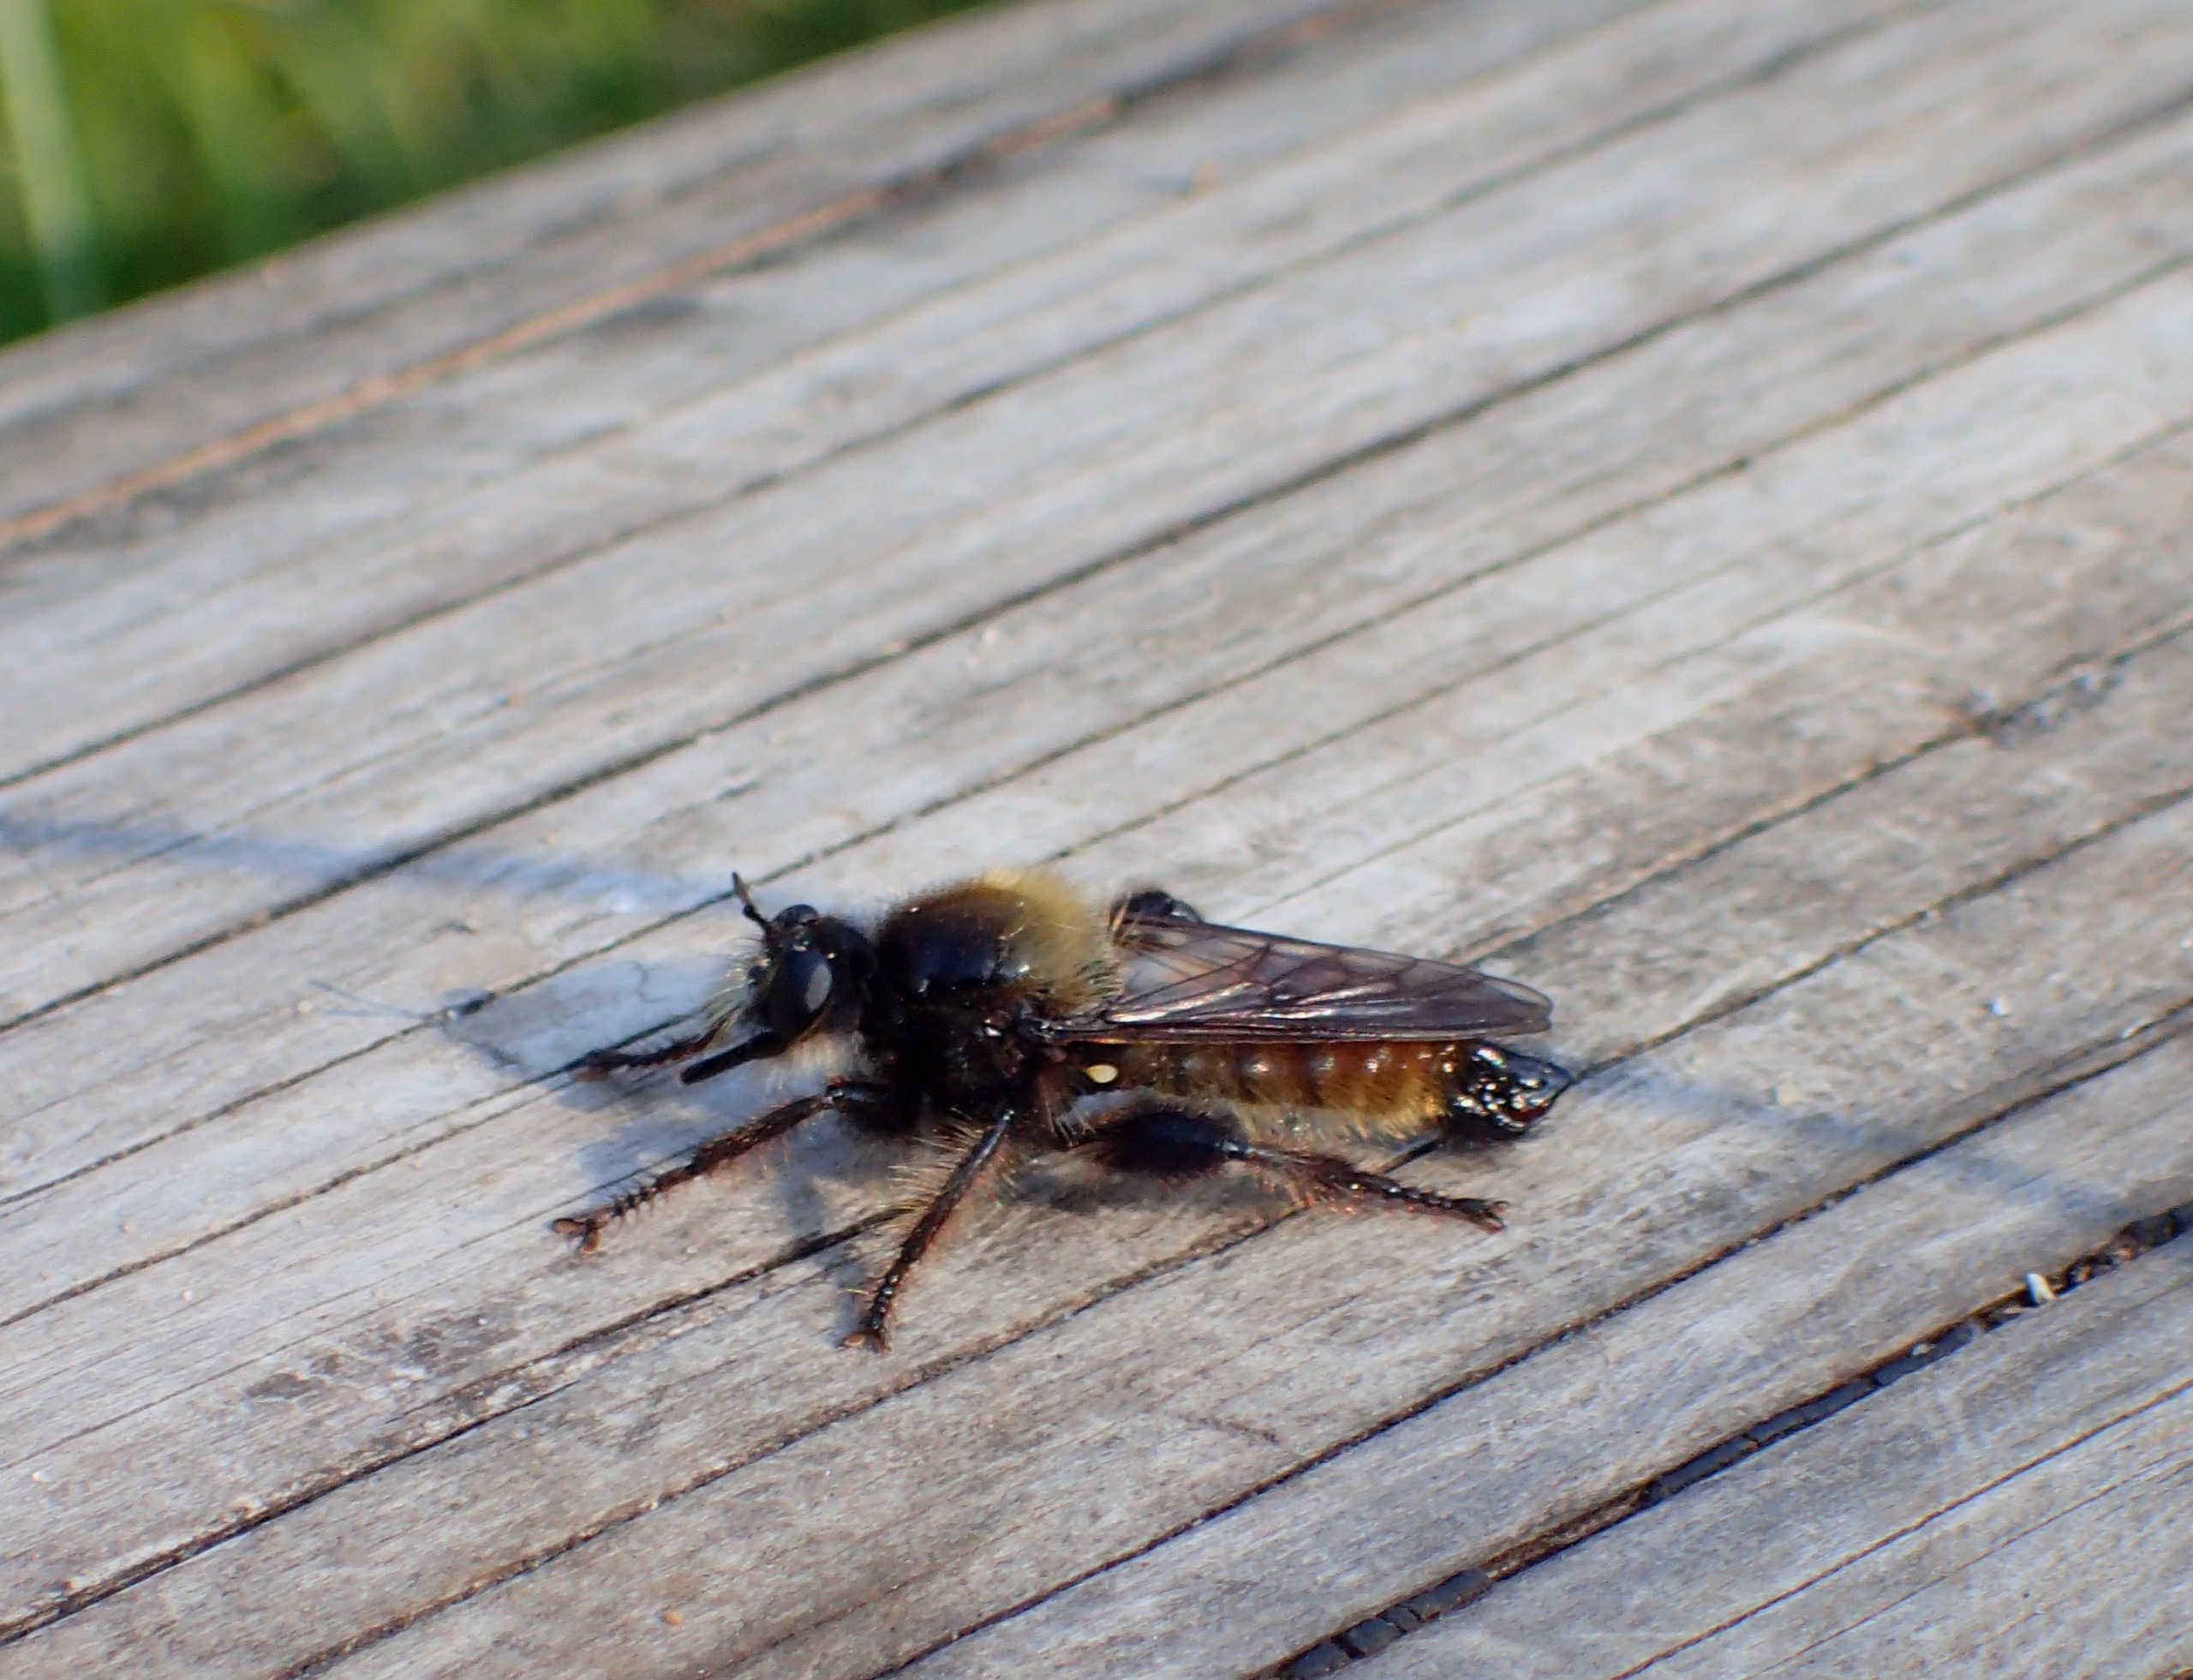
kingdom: Animalia
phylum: Arthropoda
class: Insecta
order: Diptera
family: Asilidae
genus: Laphria
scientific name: Laphria flava
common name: Gul vedrovflue
